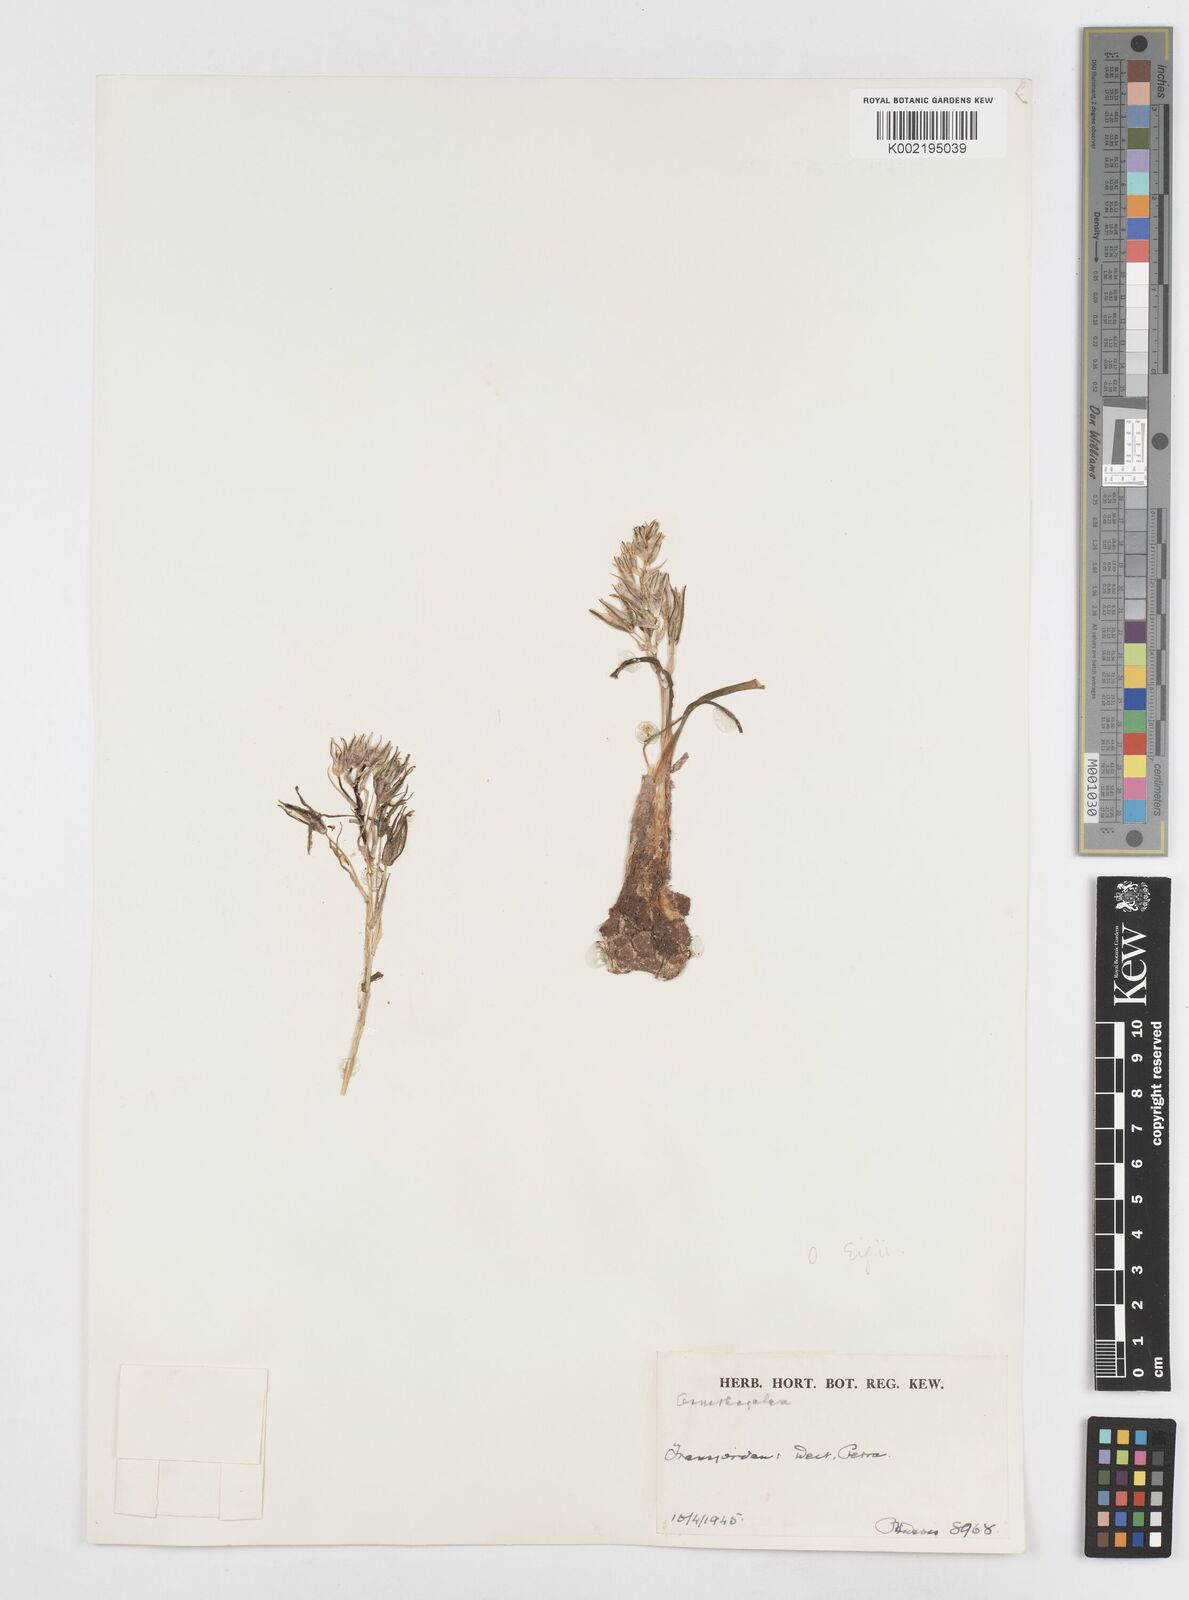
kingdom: Plantae
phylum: Tracheophyta
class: Liliopsida
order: Asparagales
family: Asparagaceae
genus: Ornithogalum
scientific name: Ornithogalum neurostegium
